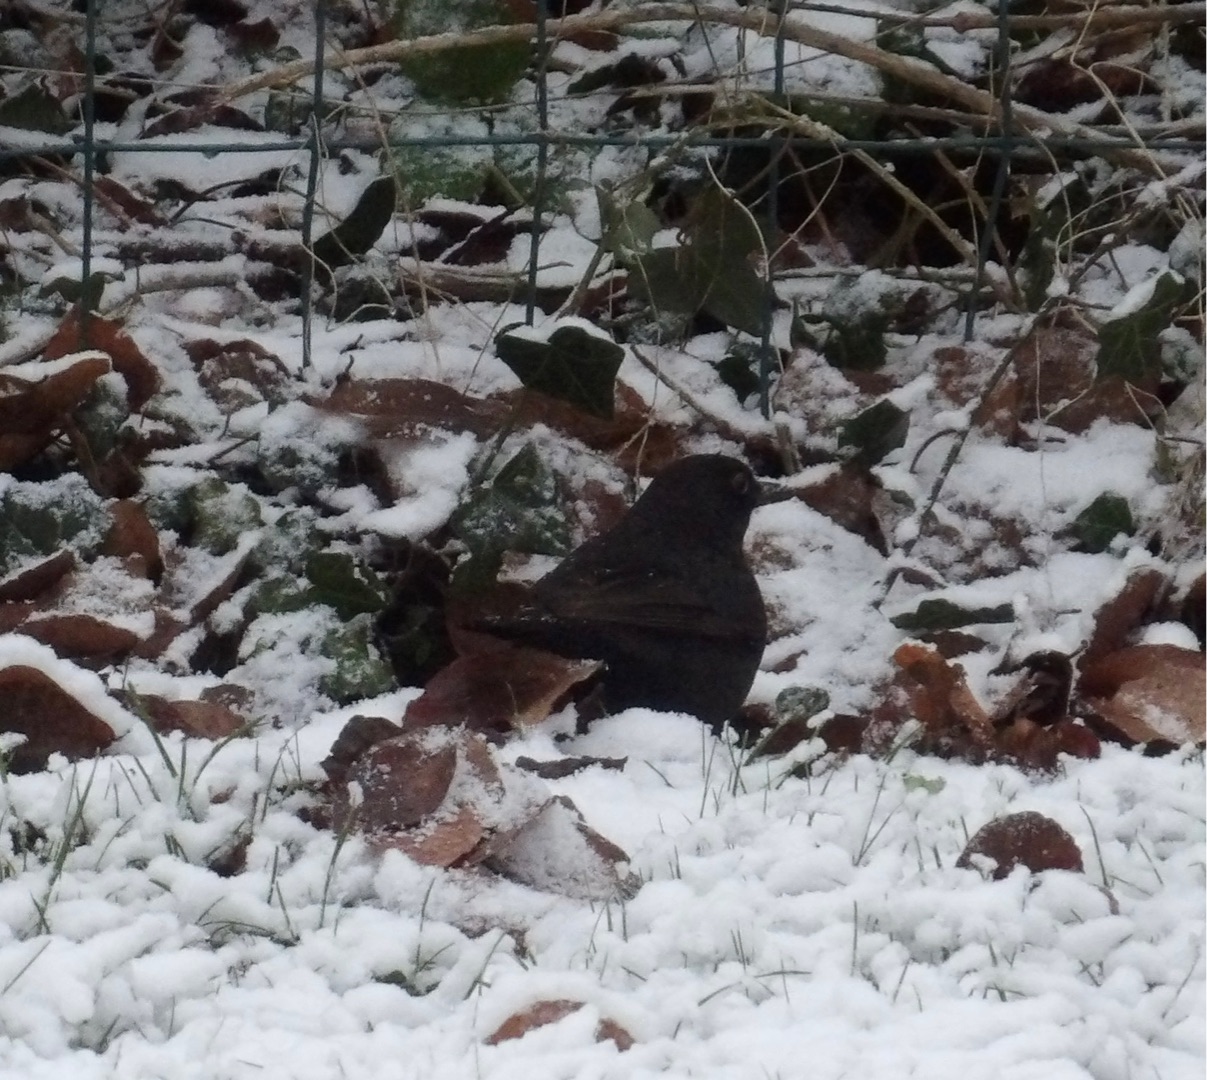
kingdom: Animalia
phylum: Chordata
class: Aves
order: Passeriformes
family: Turdidae
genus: Turdus
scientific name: Turdus merula
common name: Solsort
